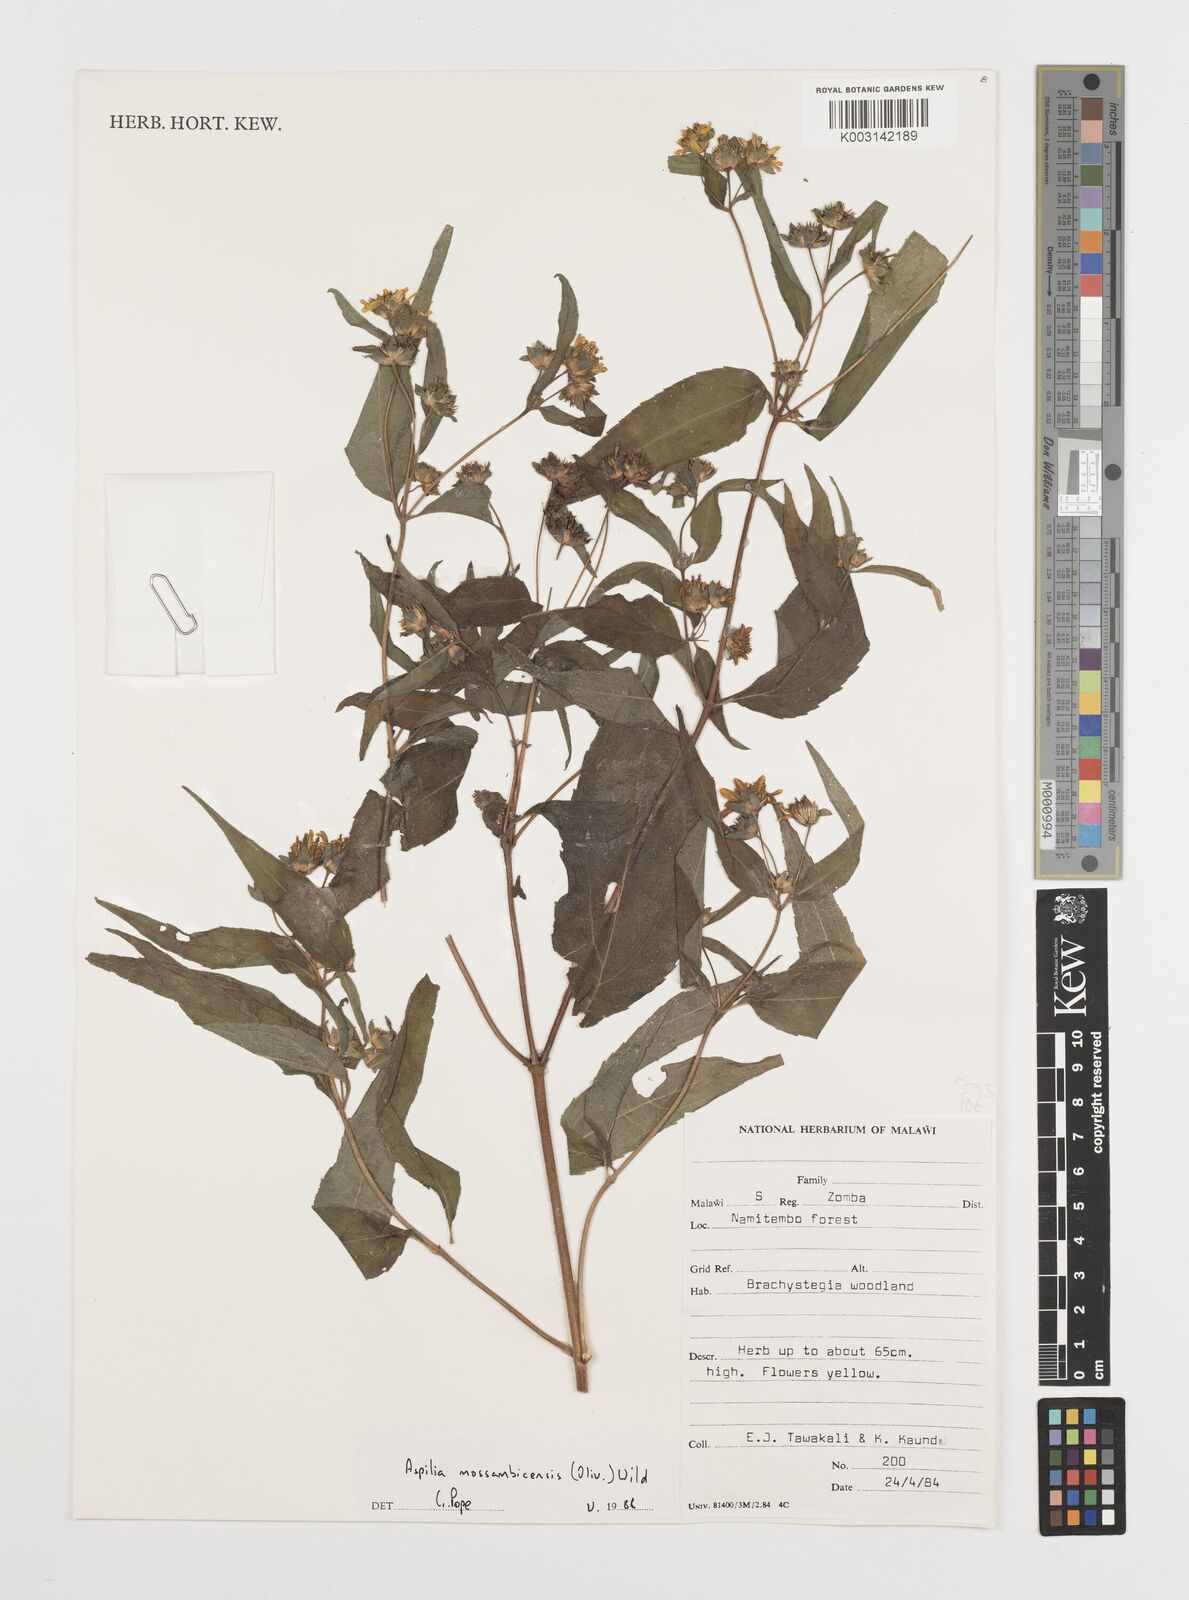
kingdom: Plantae
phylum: Tracheophyta
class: Magnoliopsida
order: Asterales
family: Asteraceae
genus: Aspilia
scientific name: Aspilia mossambicensis
